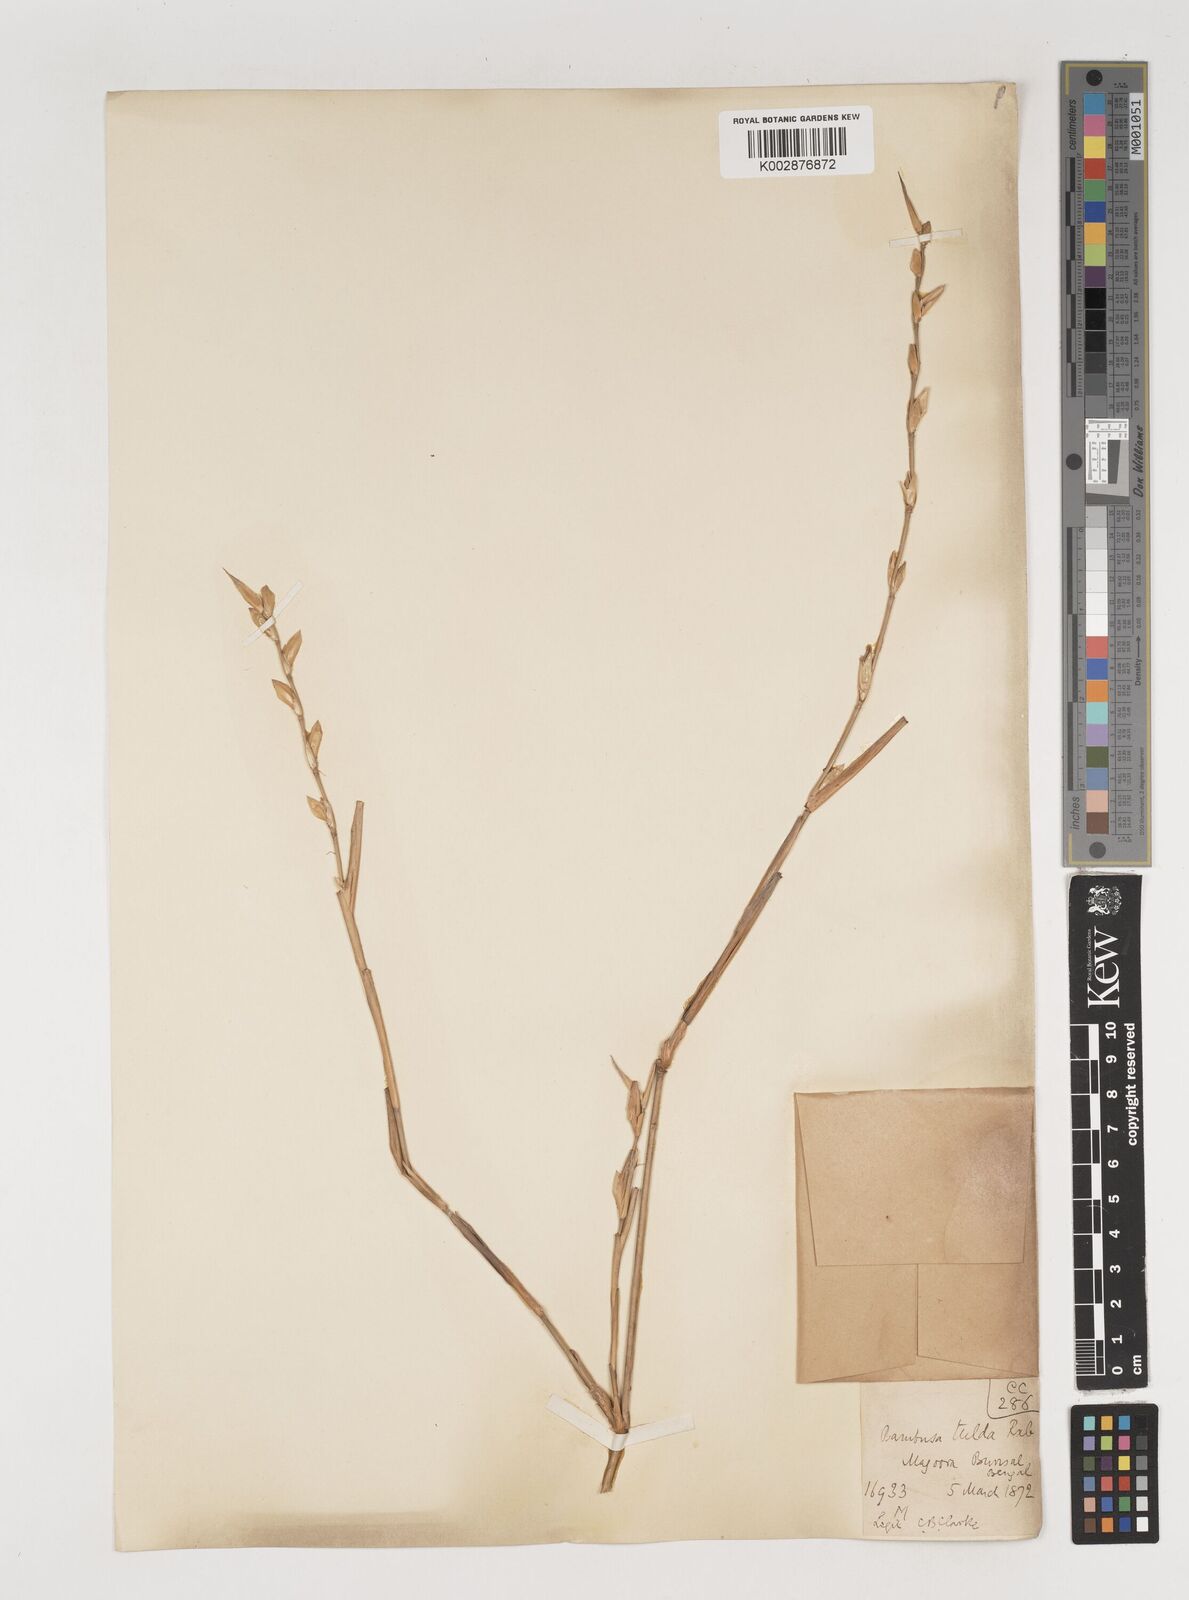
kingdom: Plantae
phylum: Tracheophyta
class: Liliopsida
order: Poales
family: Poaceae
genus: Bambusa
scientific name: Bambusa tuldoides
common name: Verdant bamboo
